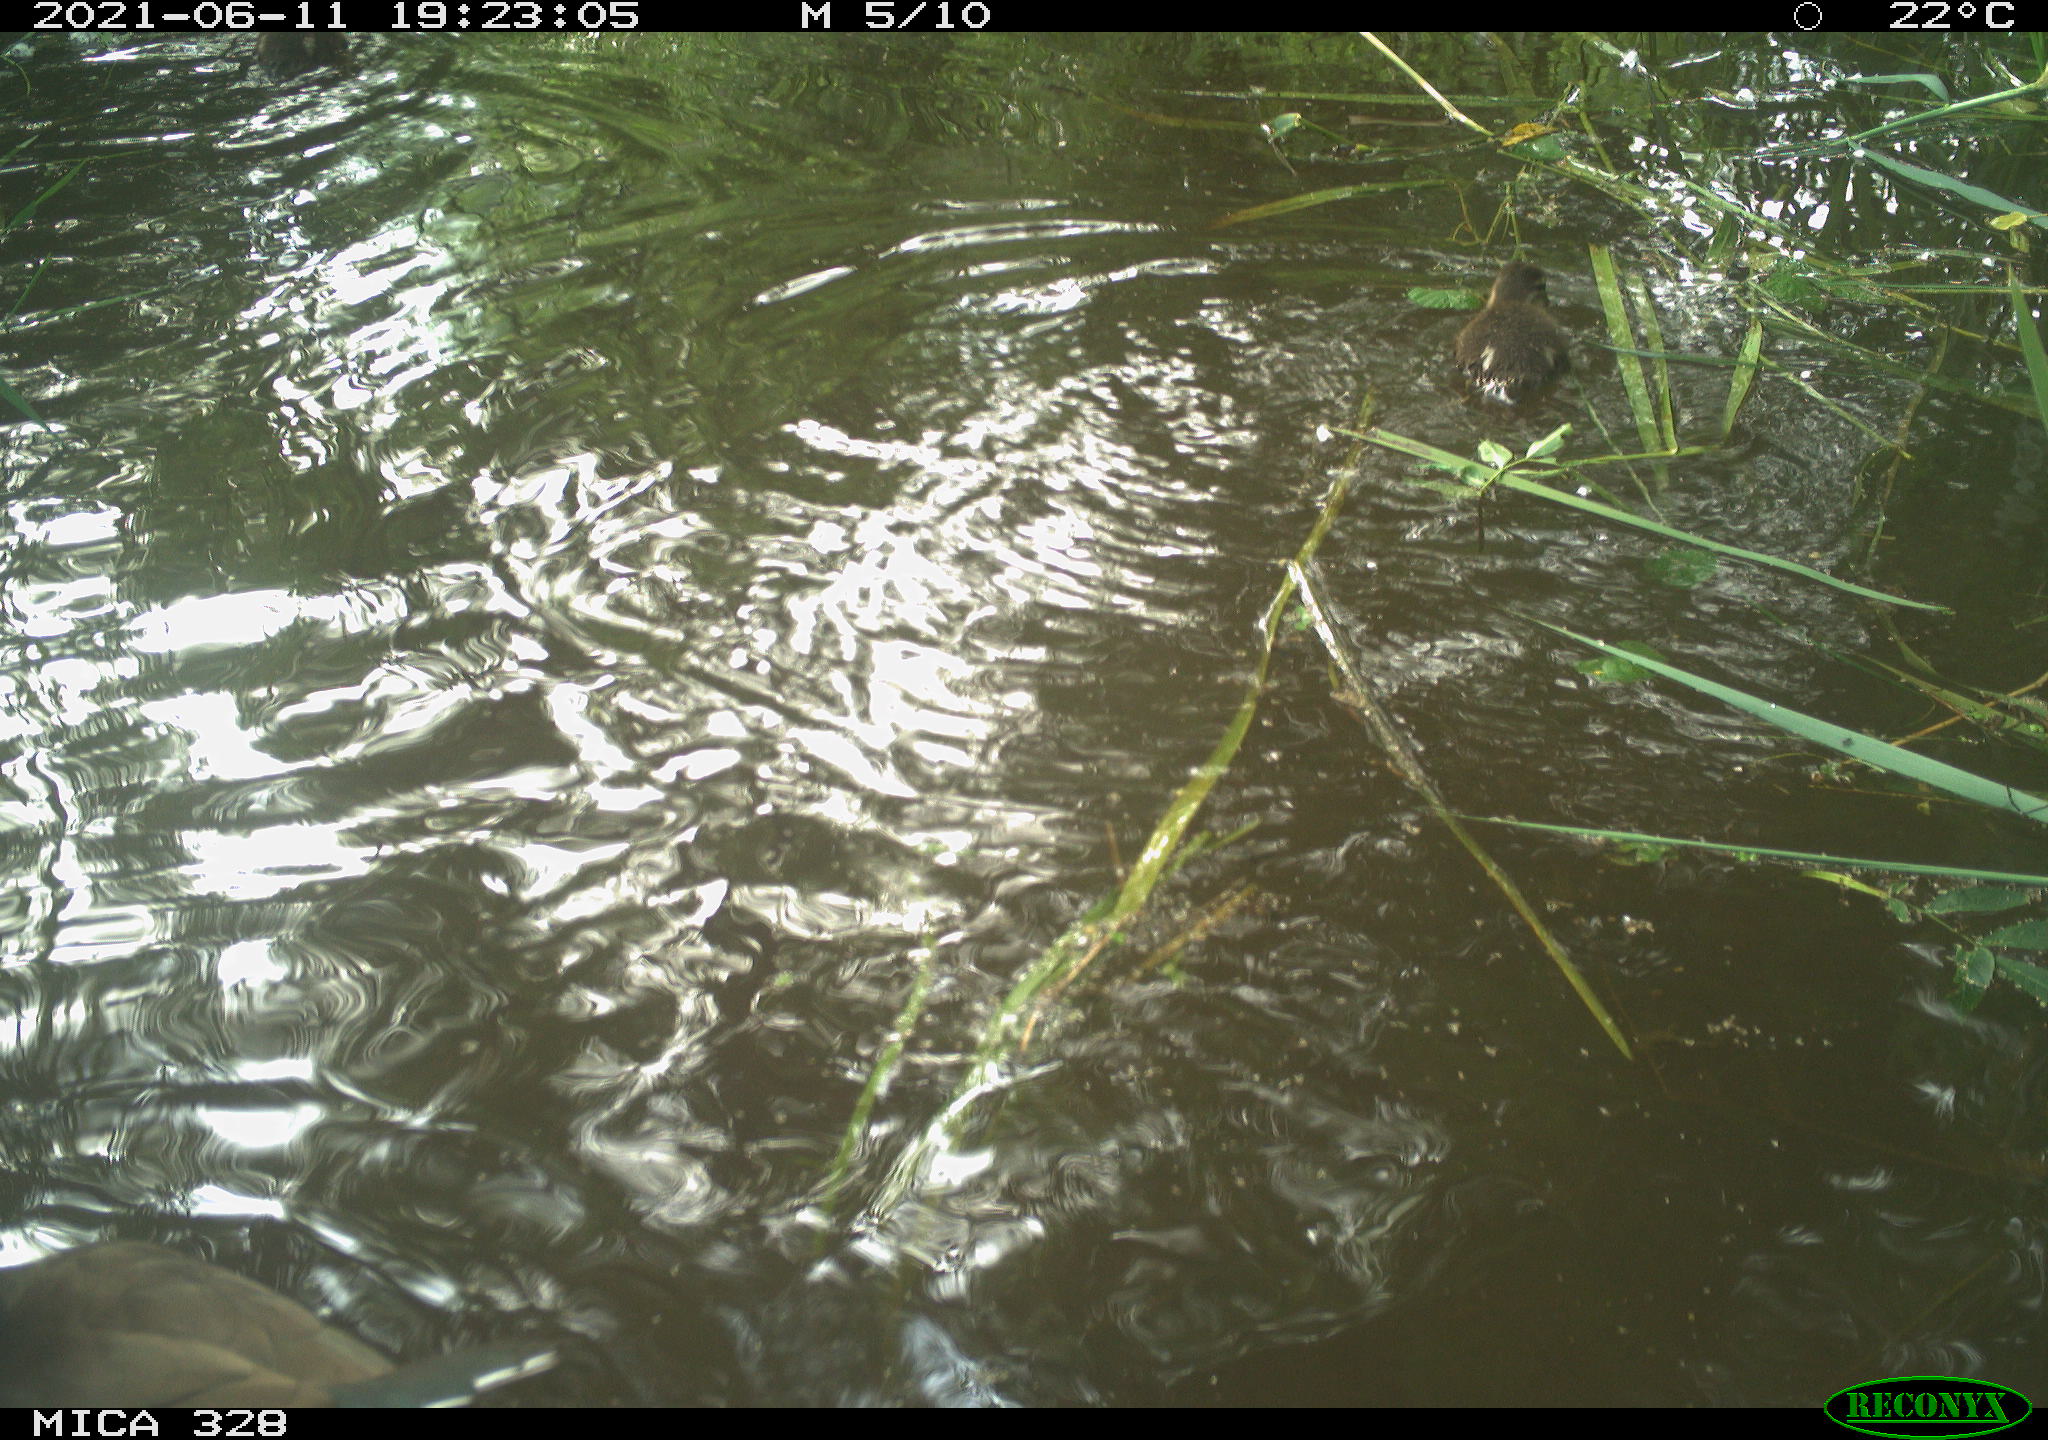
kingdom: Animalia
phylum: Chordata
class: Aves
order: Anseriformes
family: Anatidae
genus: Aix
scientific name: Aix galericulata
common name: Mandarin duck
